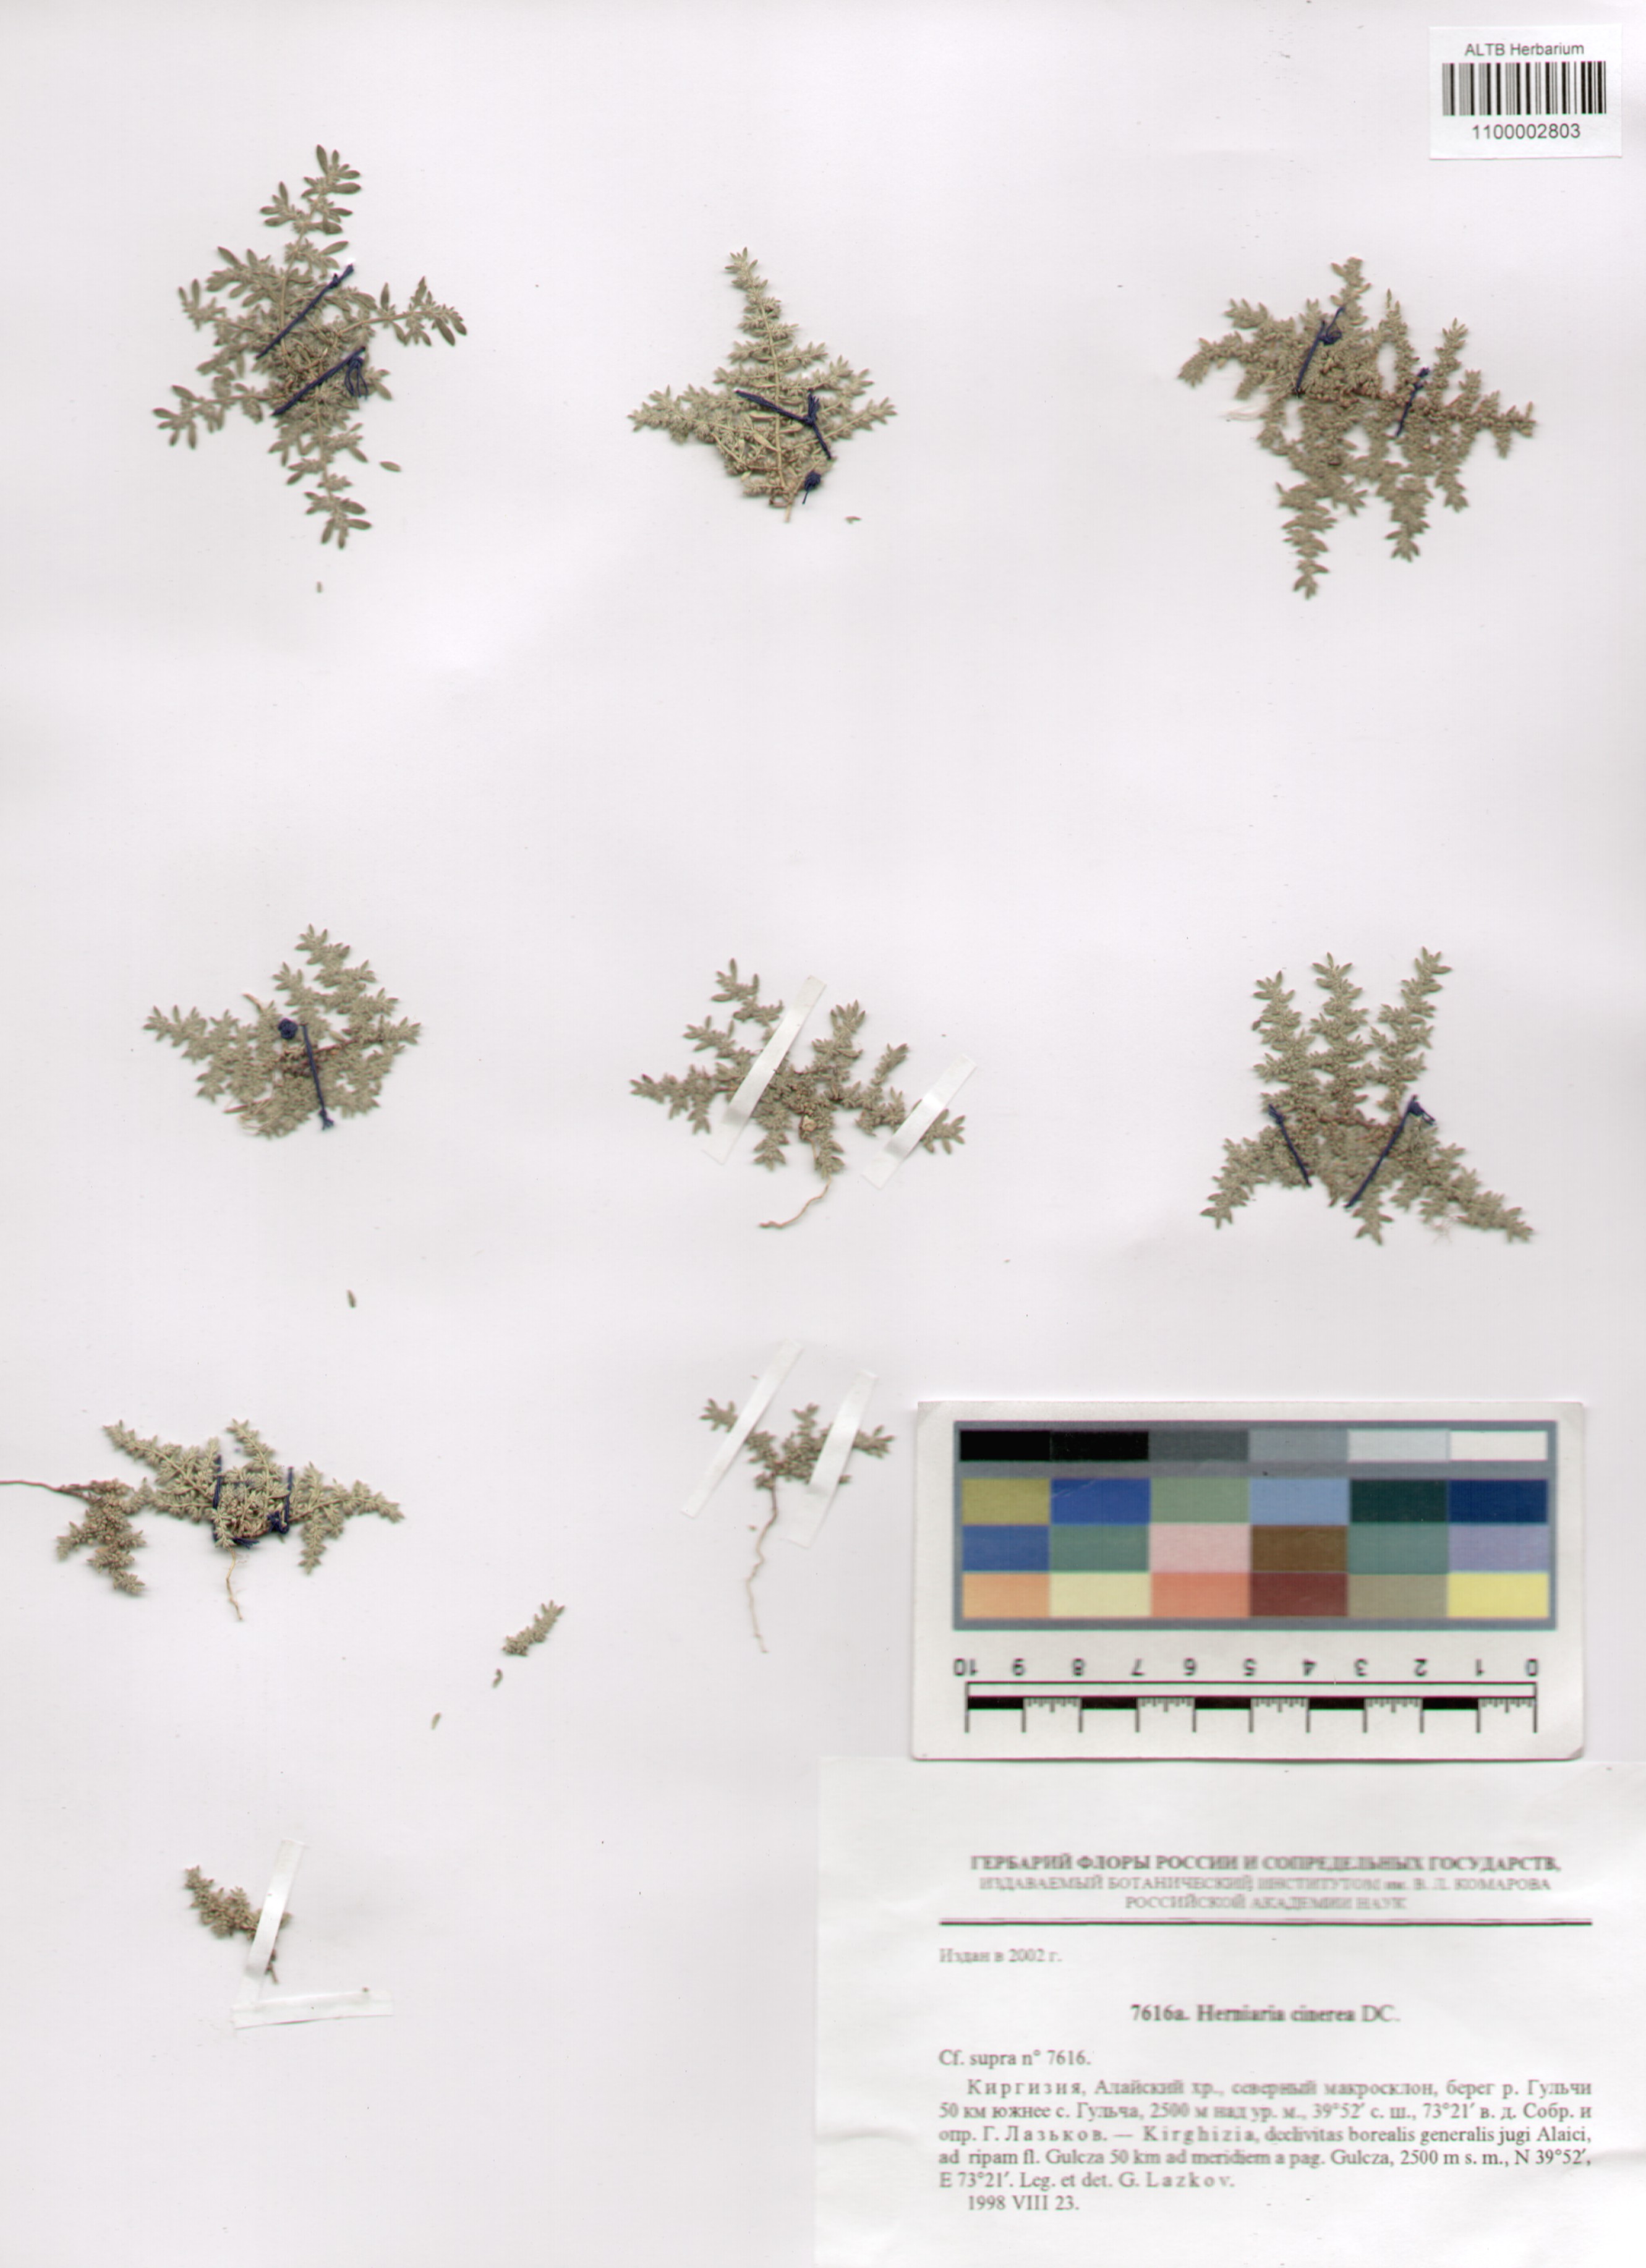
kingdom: Plantae
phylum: Tracheophyta
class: Magnoliopsida
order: Caryophyllales
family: Caryophyllaceae
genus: Herniaria
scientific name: Herniaria cinerea
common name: Hairy rupturewort
